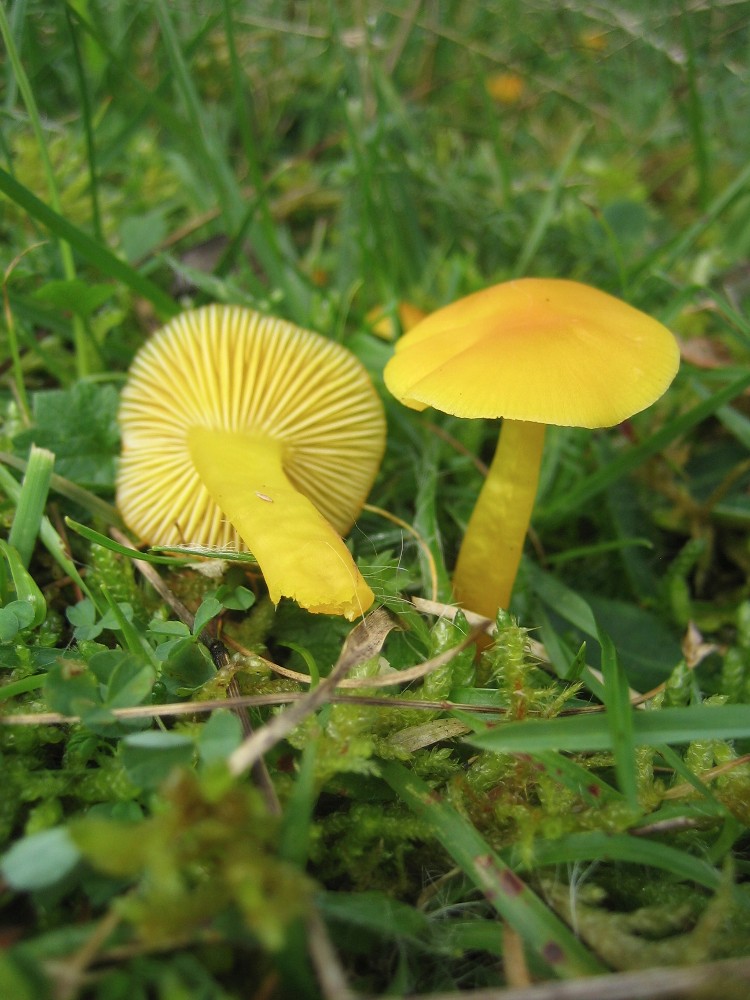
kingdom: Fungi
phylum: Basidiomycota
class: Agaricomycetes
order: Agaricales
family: Hygrophoraceae
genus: Hygrocybe
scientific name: Hygrocybe ceracea
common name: voksgul vokshat
